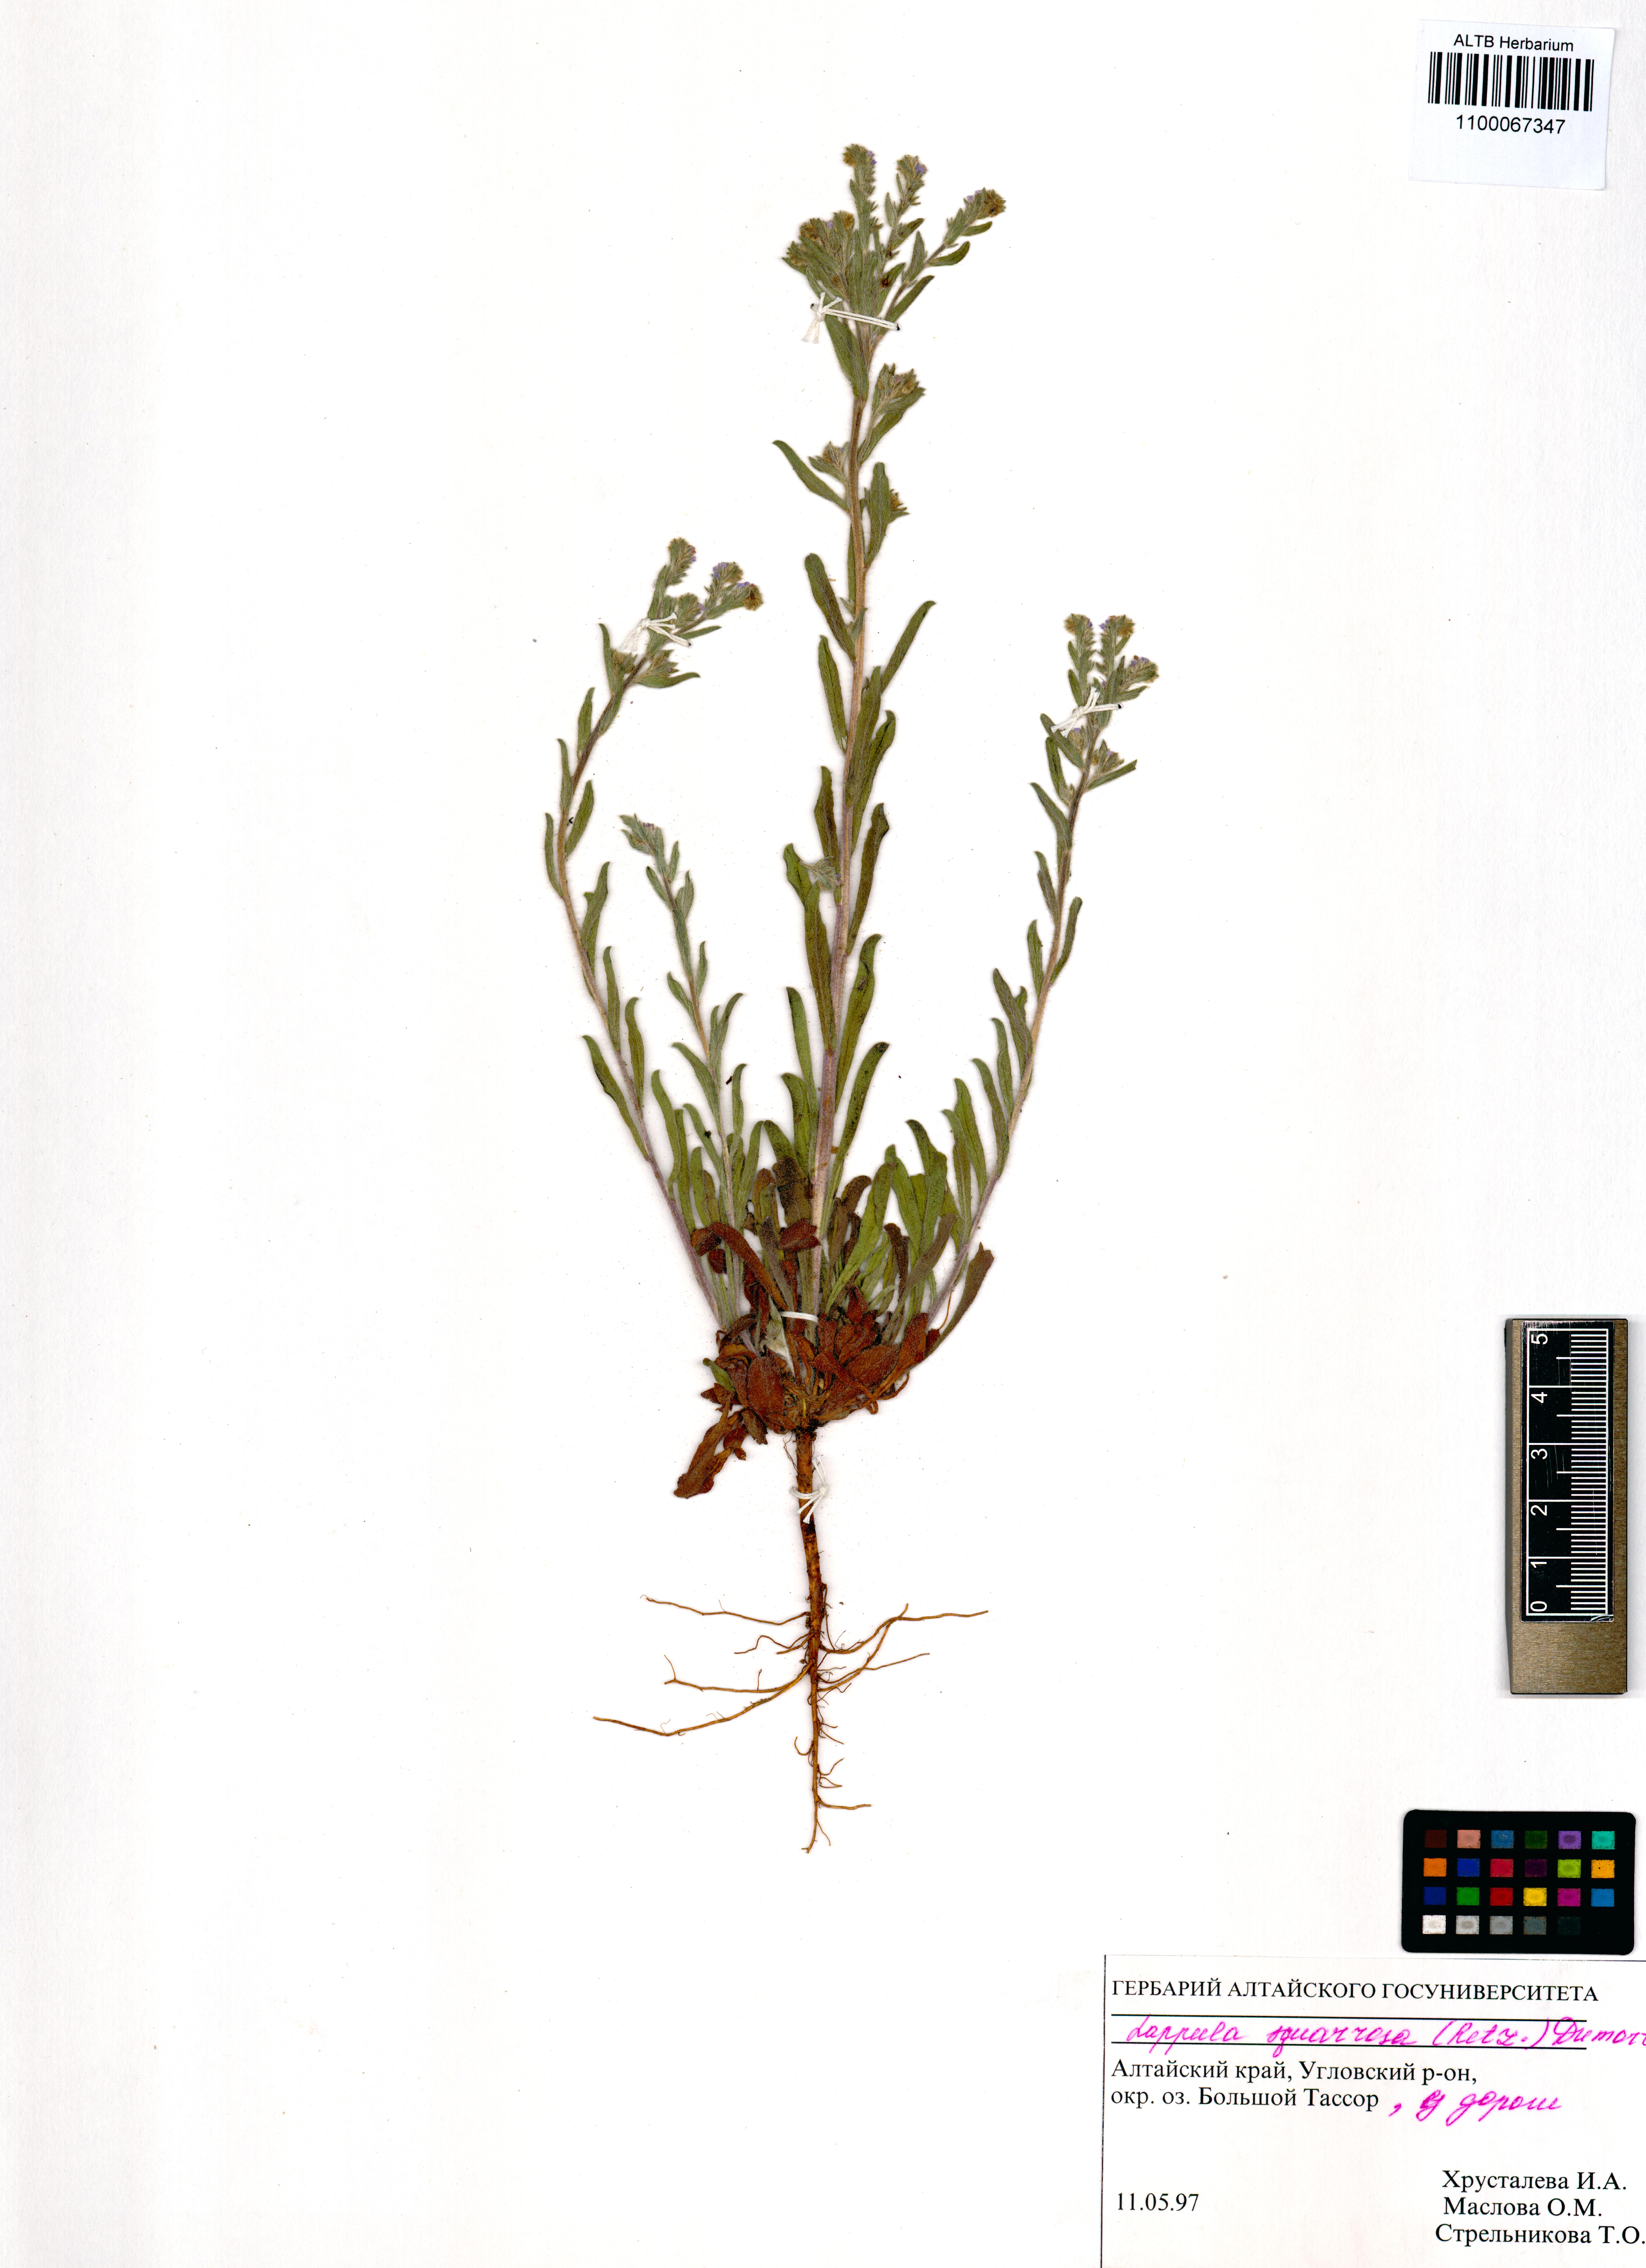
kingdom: Plantae
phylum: Tracheophyta
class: Magnoliopsida
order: Boraginales
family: Boraginaceae
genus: Lappula
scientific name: Lappula squarrosa
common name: European stickseed
